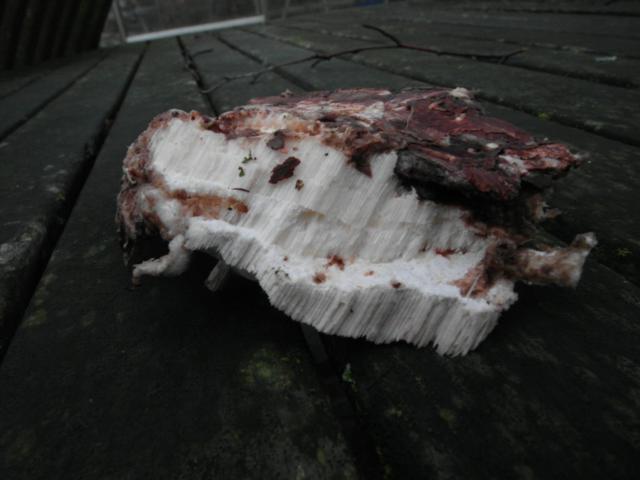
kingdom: Fungi
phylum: Basidiomycota
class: Agaricomycetes
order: Polyporales
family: Gelatoporiaceae
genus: Cinereomyces
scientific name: Cinereomyces lindbladii
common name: almindelig gråporesvamp
